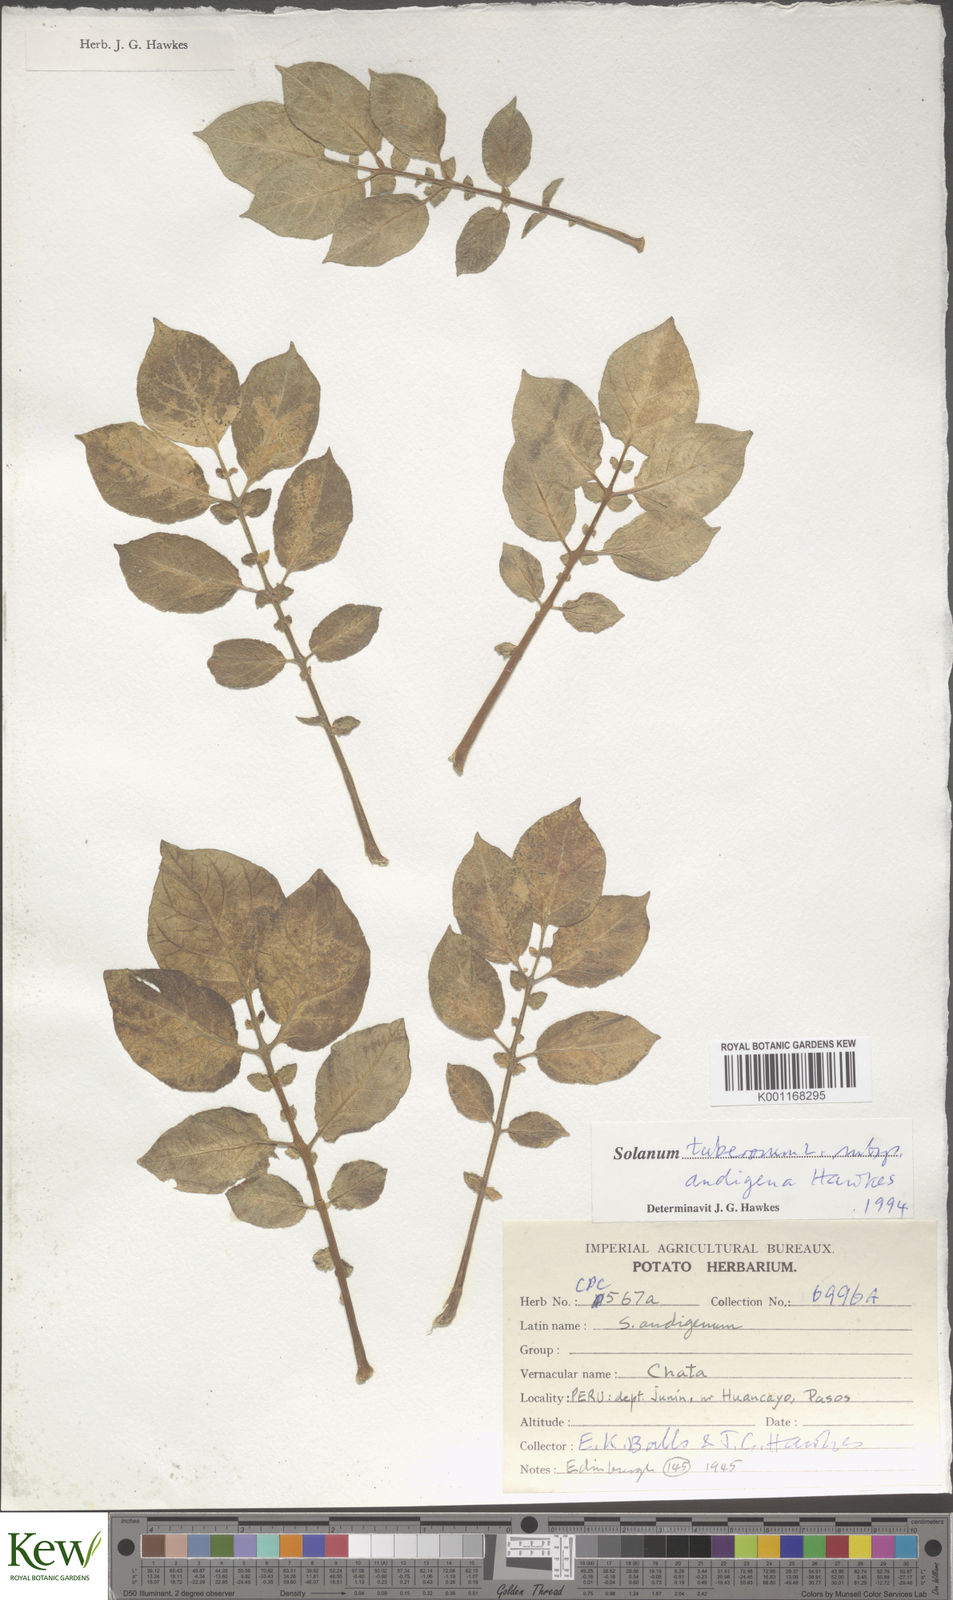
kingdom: Plantae
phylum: Tracheophyta
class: Magnoliopsida
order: Solanales
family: Solanaceae
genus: Solanum
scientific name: Solanum tuberosum
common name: Potato
